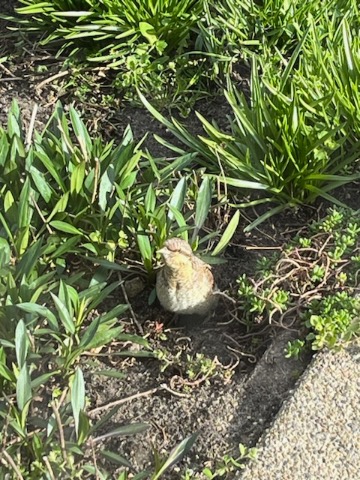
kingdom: Animalia
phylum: Chordata
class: Aves
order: Piciformes
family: Picidae
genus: Jynx
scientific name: Jynx torquilla
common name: Vendehals
